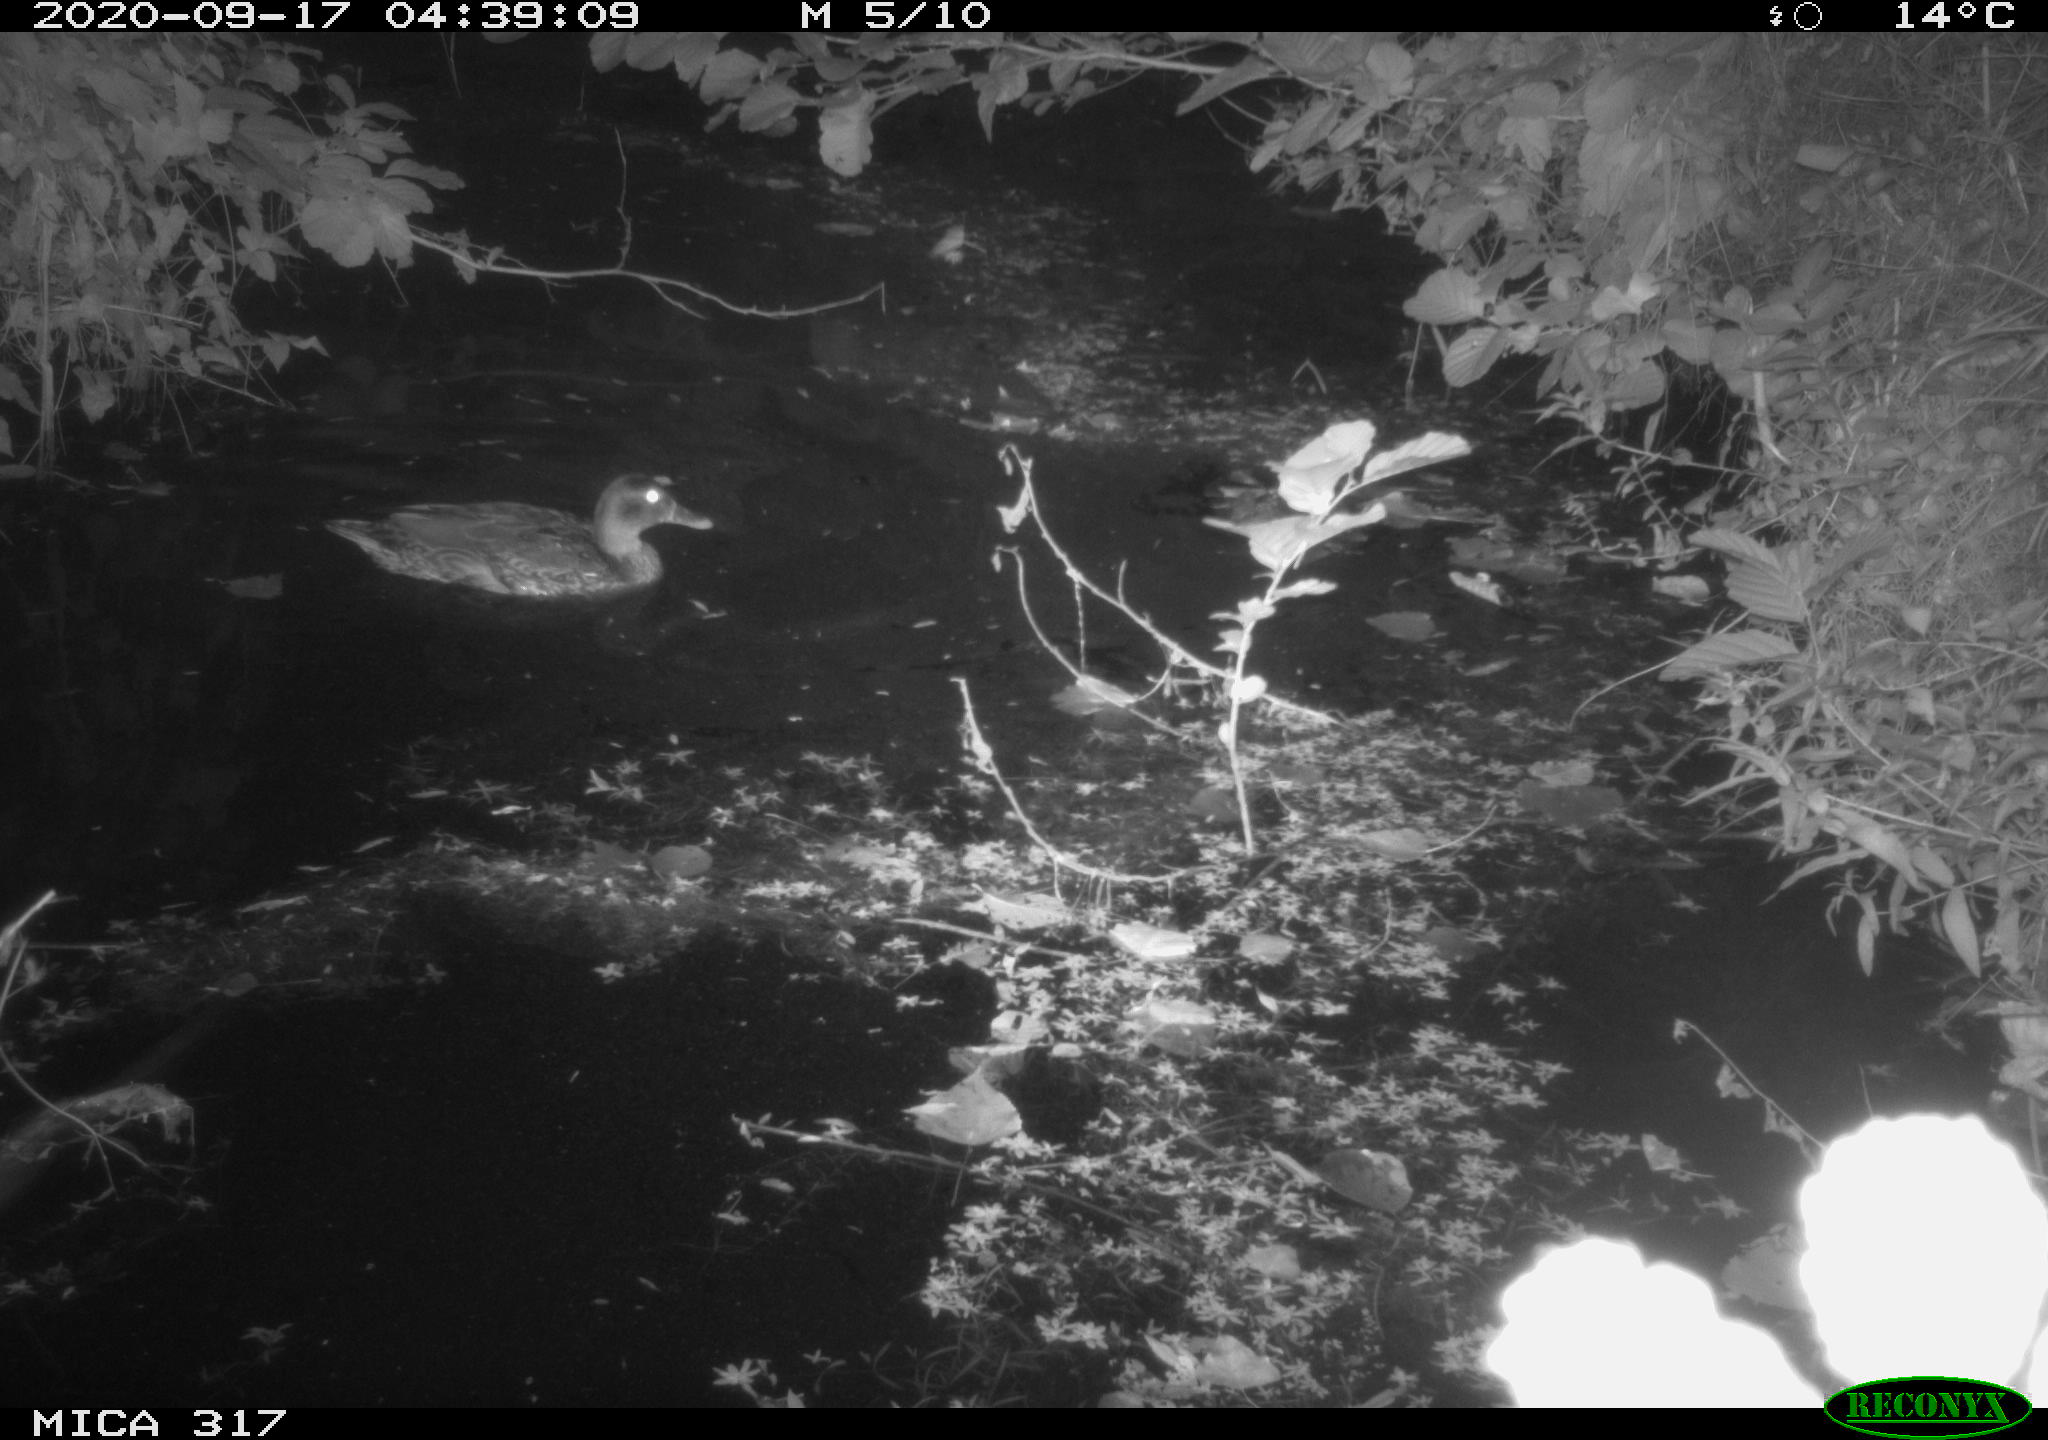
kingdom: Animalia
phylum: Chordata
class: Aves
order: Anseriformes
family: Anatidae
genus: Anas
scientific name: Anas platyrhynchos
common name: Mallard
